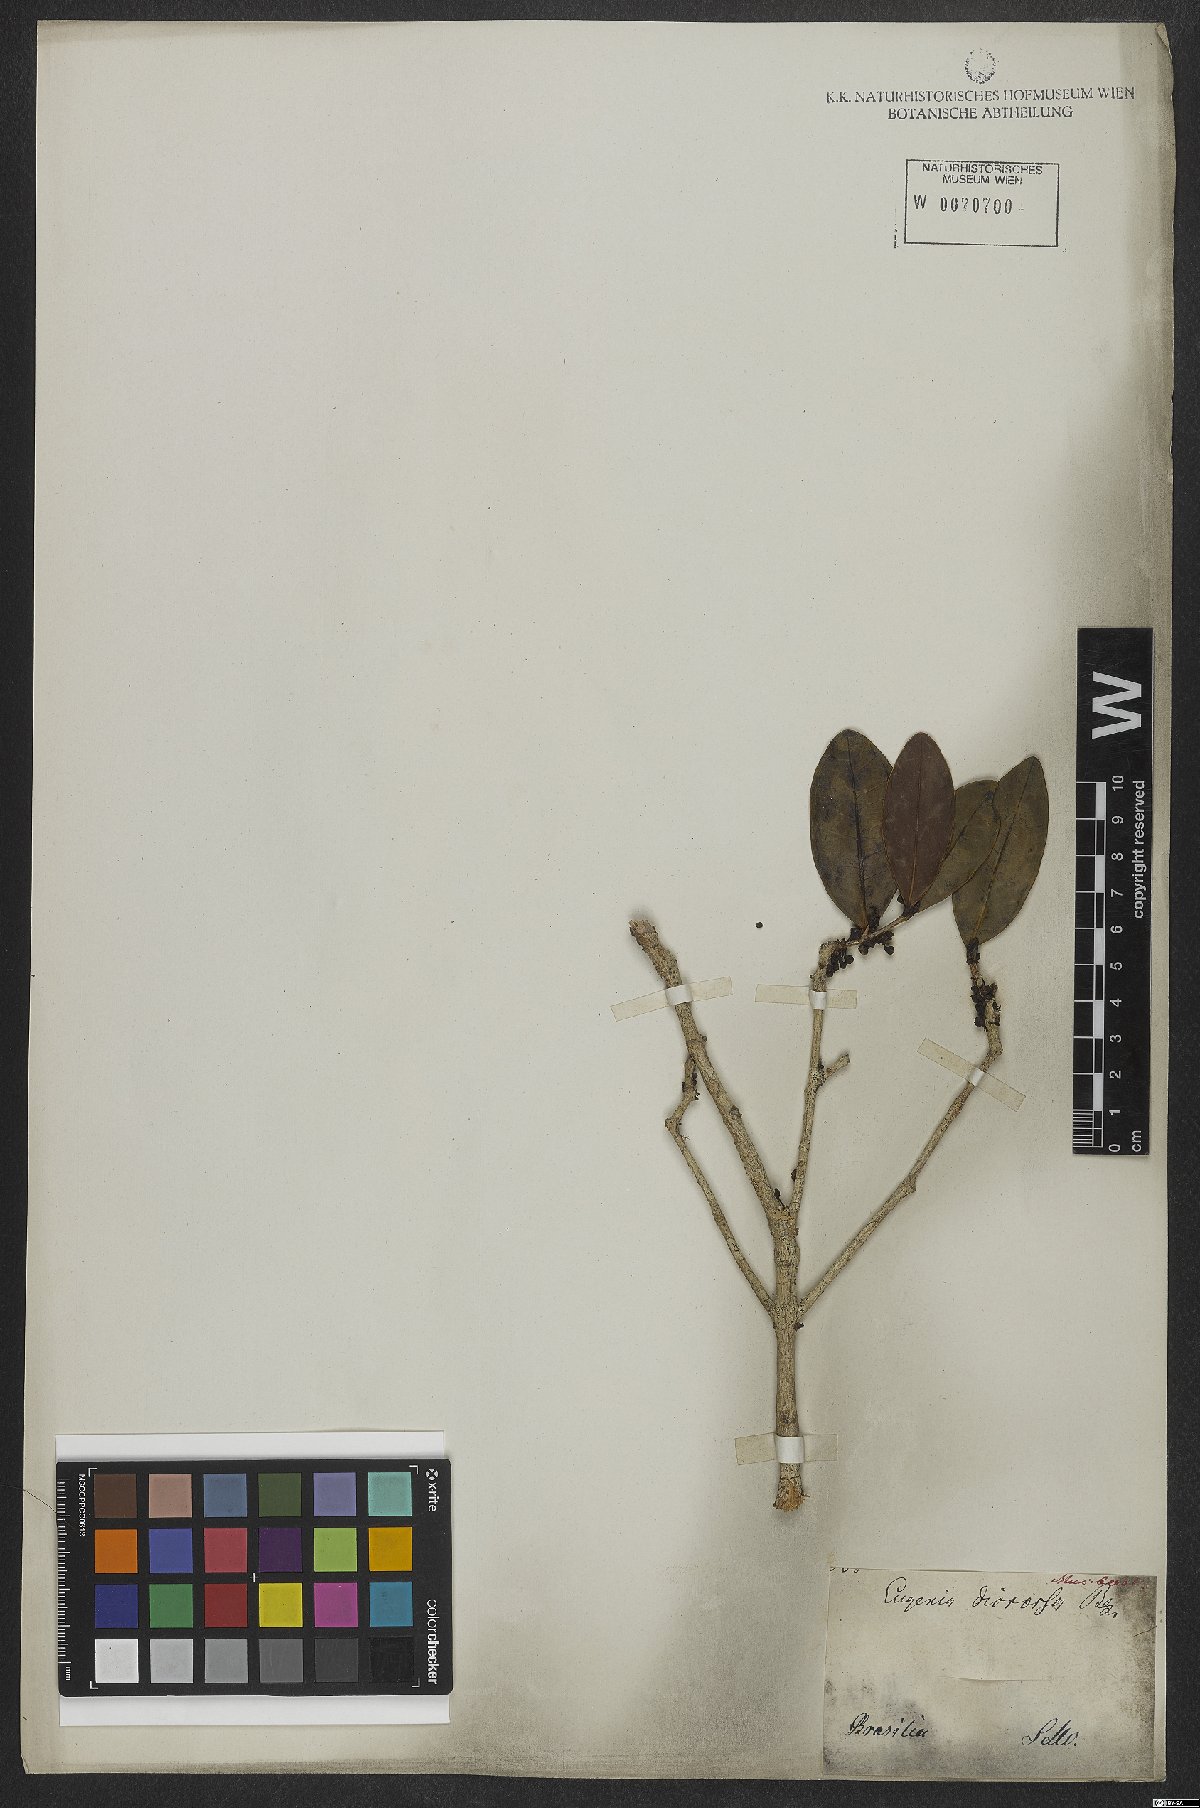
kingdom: Plantae
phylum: Tracheophyta
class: Magnoliopsida
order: Myrtales
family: Myrtaceae
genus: Eugenia
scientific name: Eugenia bimarginata
